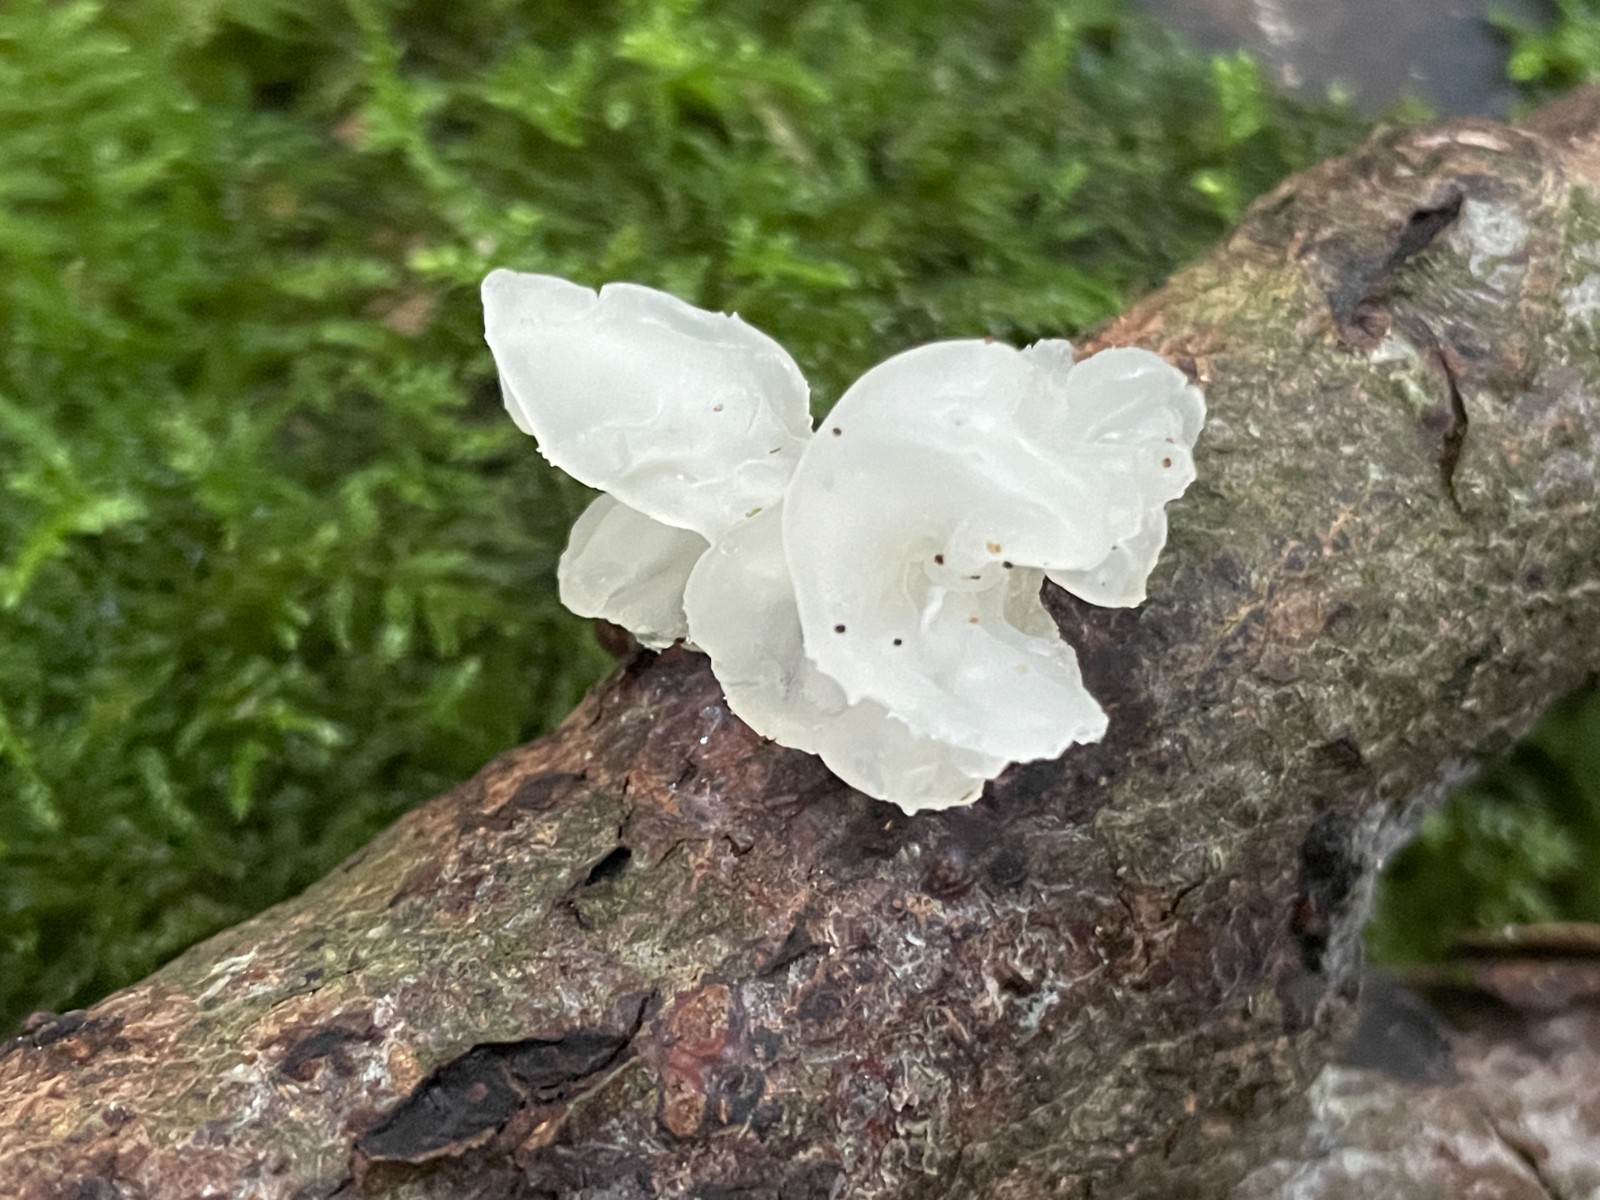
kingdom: Fungi
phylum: Basidiomycota
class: Tremellomycetes
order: Tremellales
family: Tremellaceae
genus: Tremella
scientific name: Tremella mesenterica
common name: gul bævresvamp
